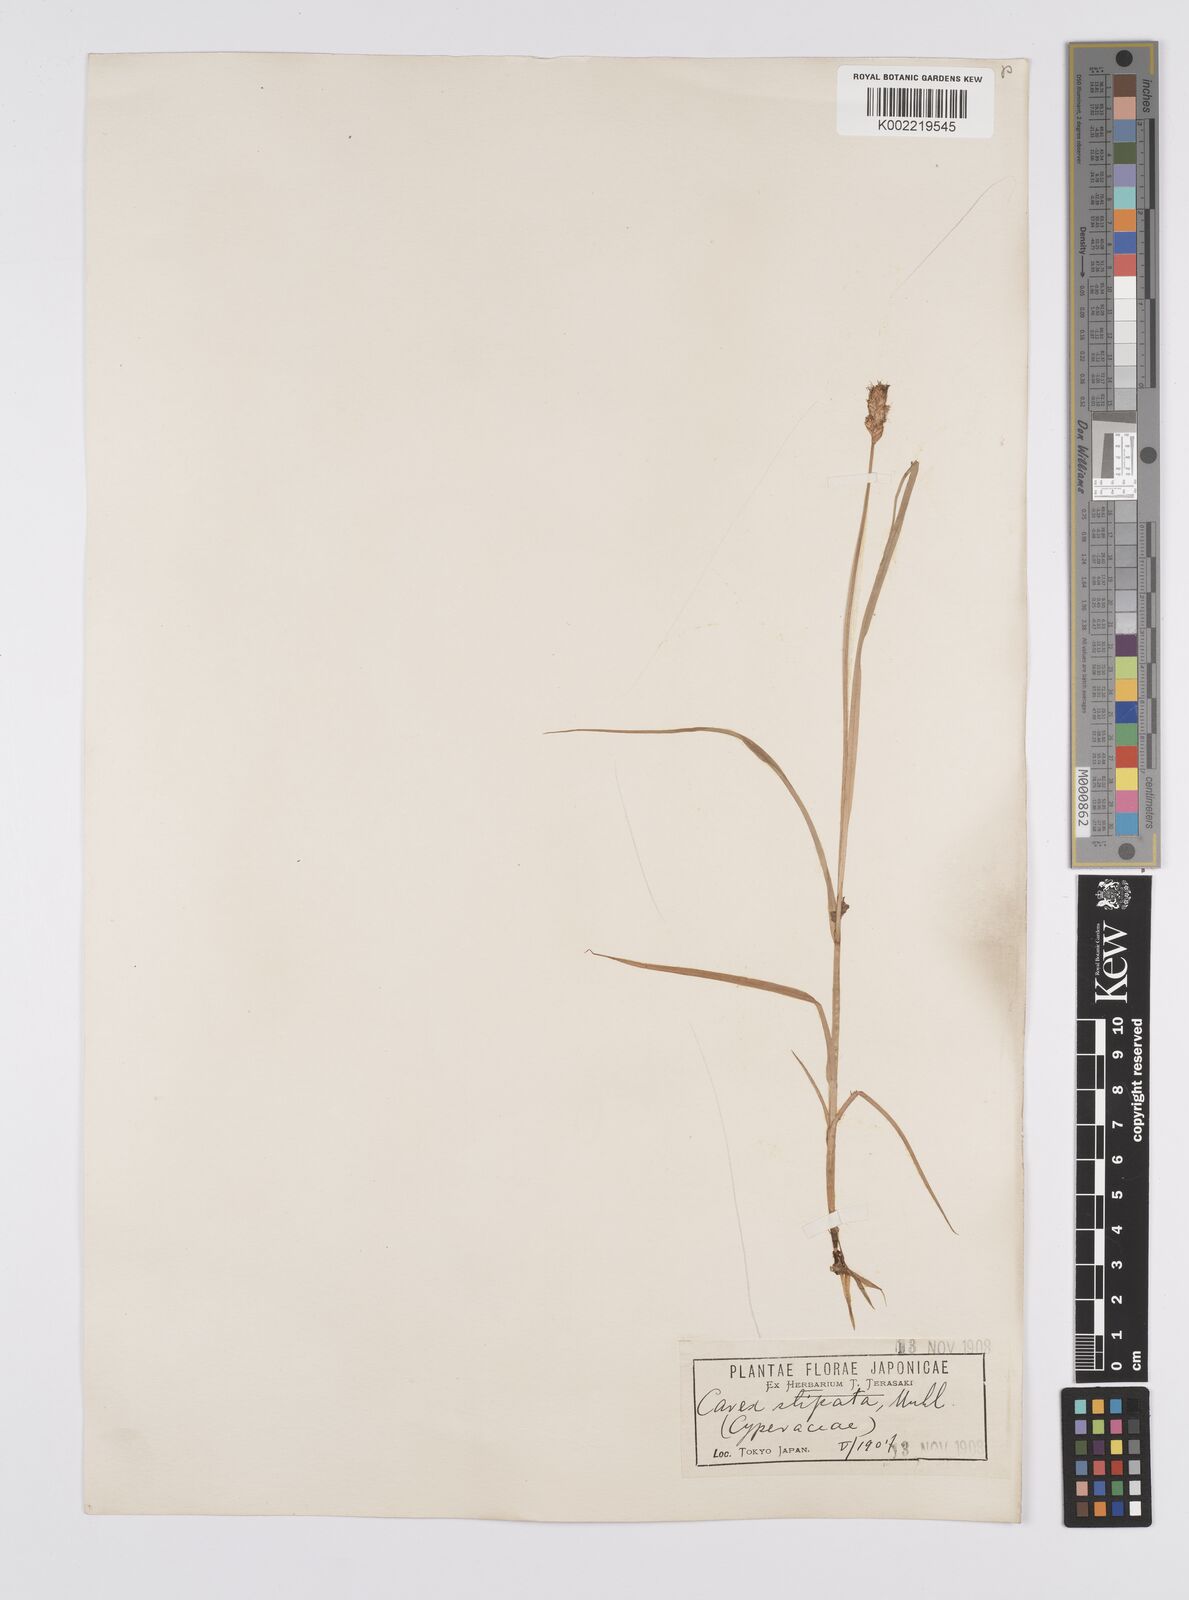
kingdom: Plantae
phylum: Tracheophyta
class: Liliopsida
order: Poales
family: Cyperaceae
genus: Carex
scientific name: Carex stipata
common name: Awl-fruited sedge
